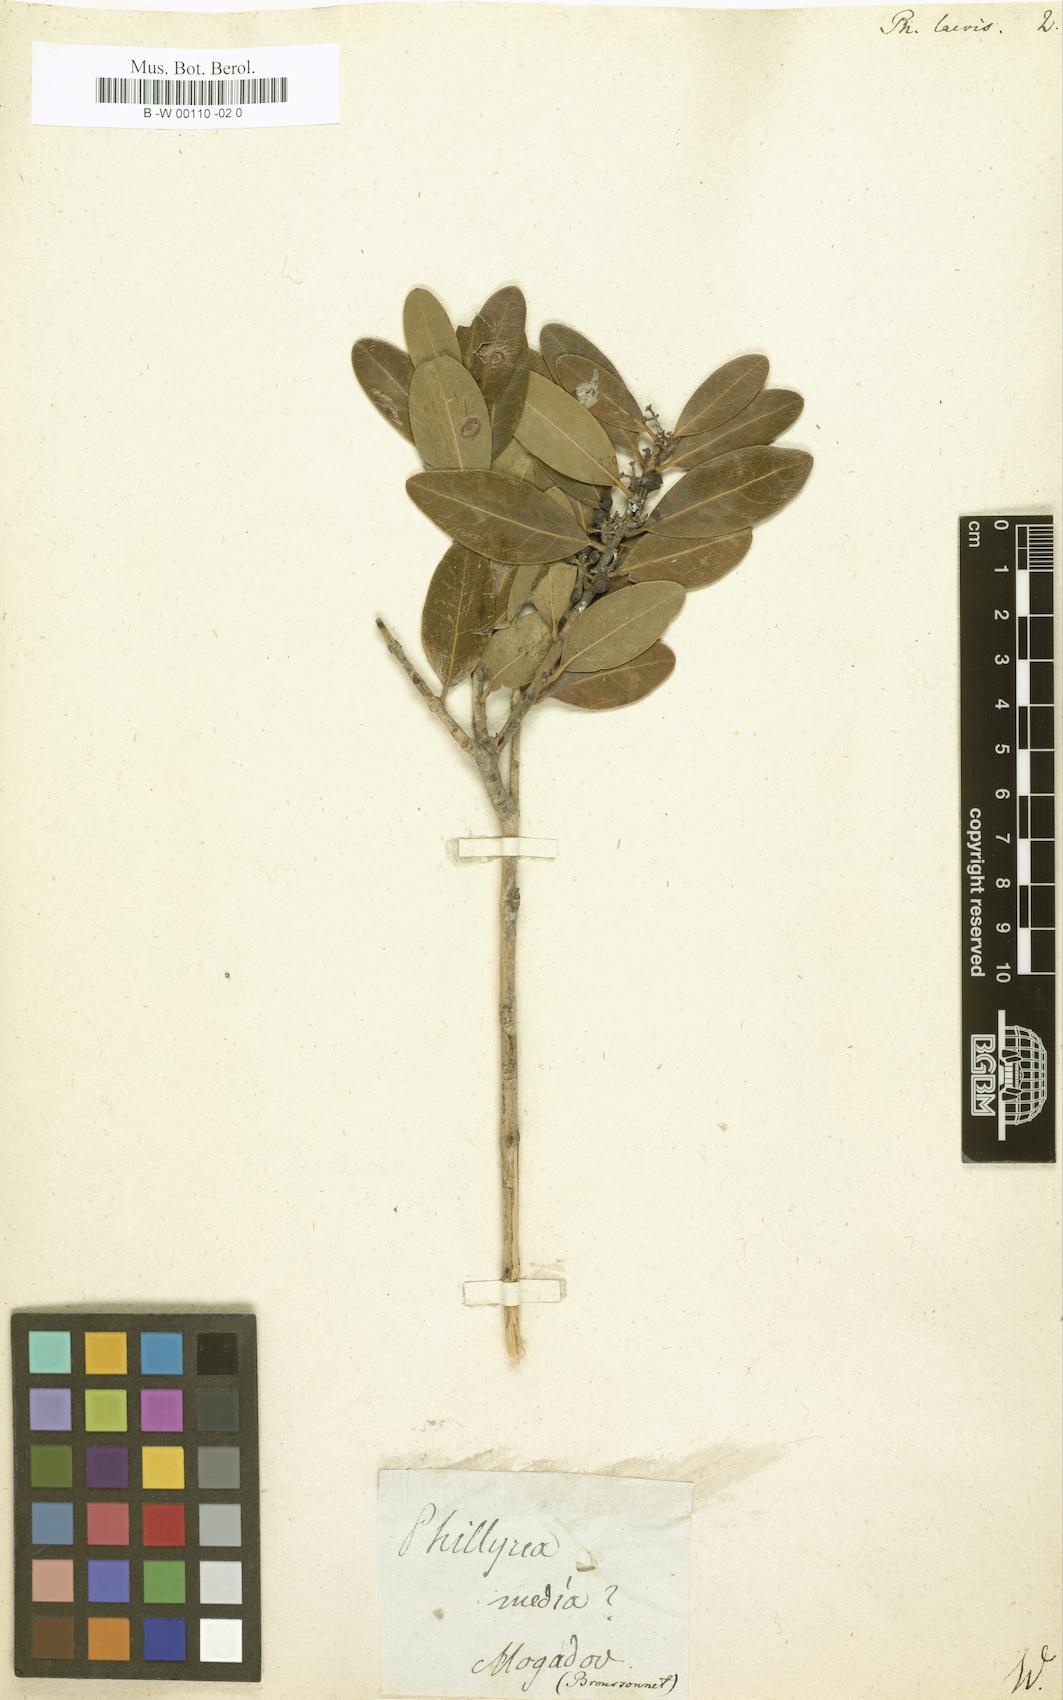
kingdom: Plantae
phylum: Tracheophyta
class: Magnoliopsida
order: Lamiales
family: Oleaceae
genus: Phillyrea
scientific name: Phillyrea latifolia
